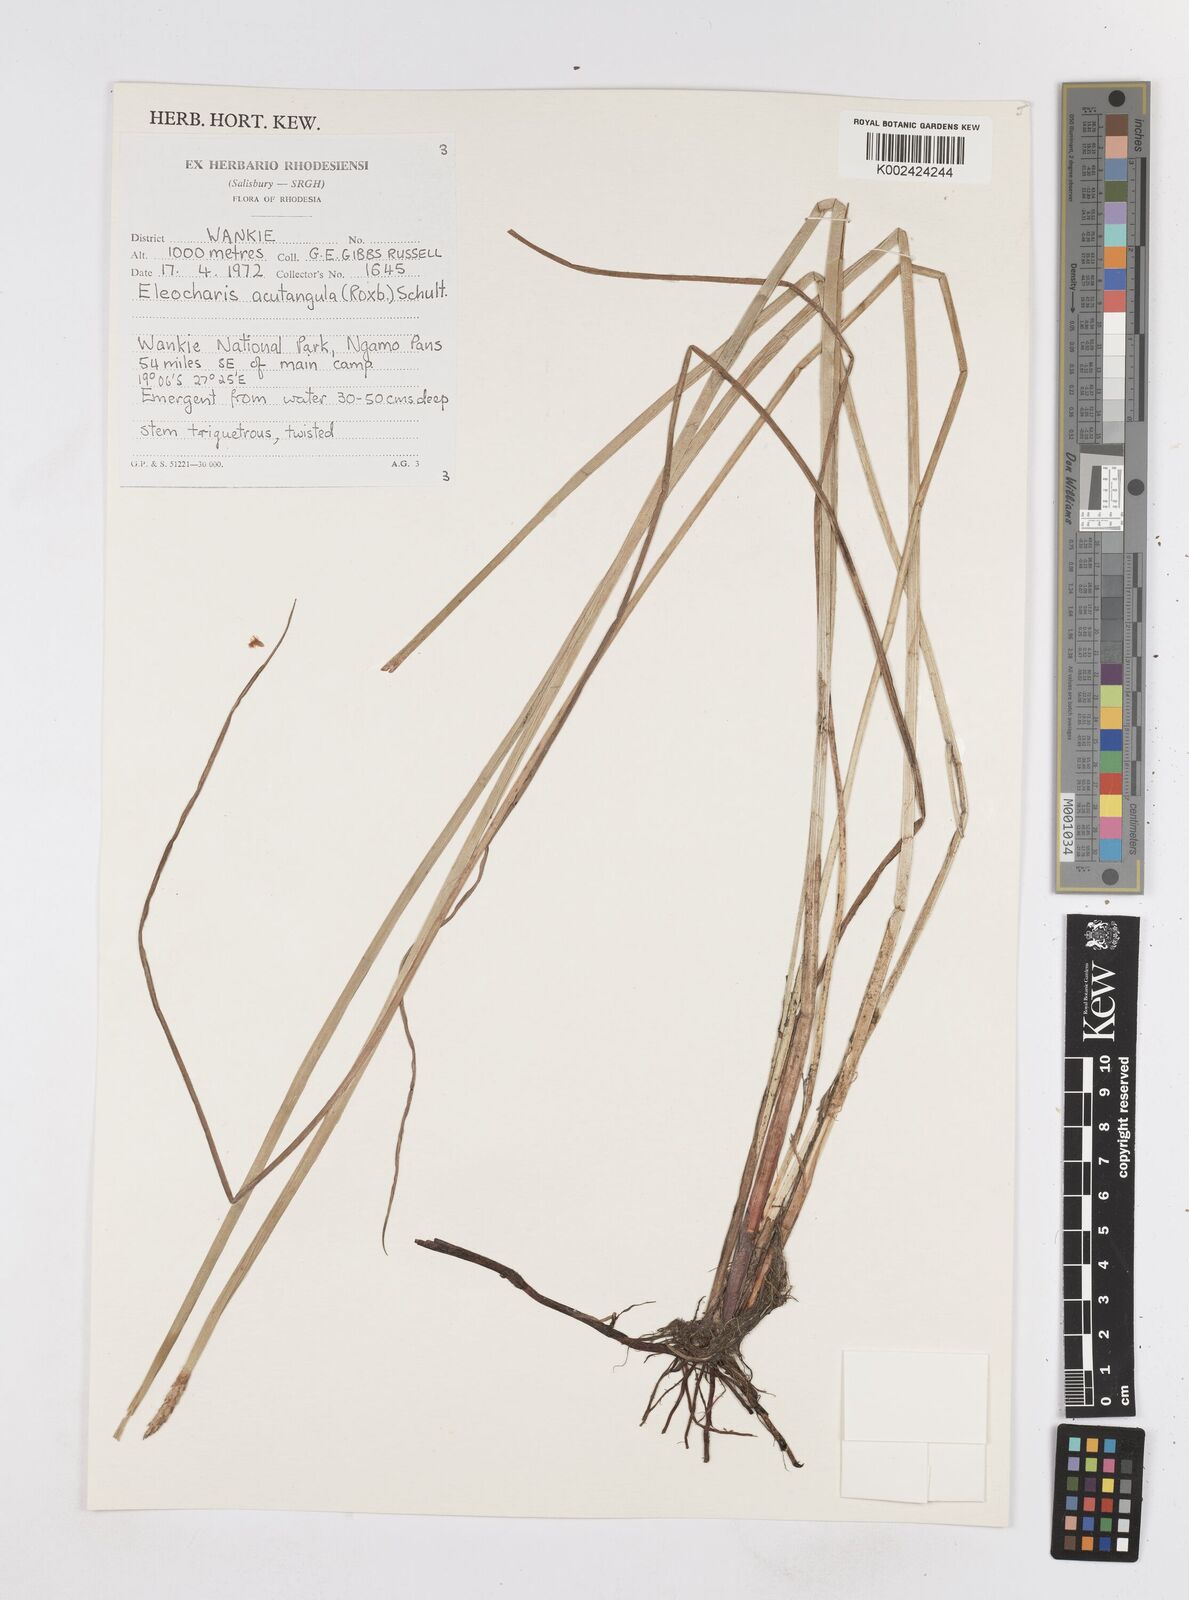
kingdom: Plantae
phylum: Tracheophyta
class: Liliopsida
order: Poales
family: Cyperaceae
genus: Eleocharis
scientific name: Eleocharis acutangula
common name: Acute spikerush
